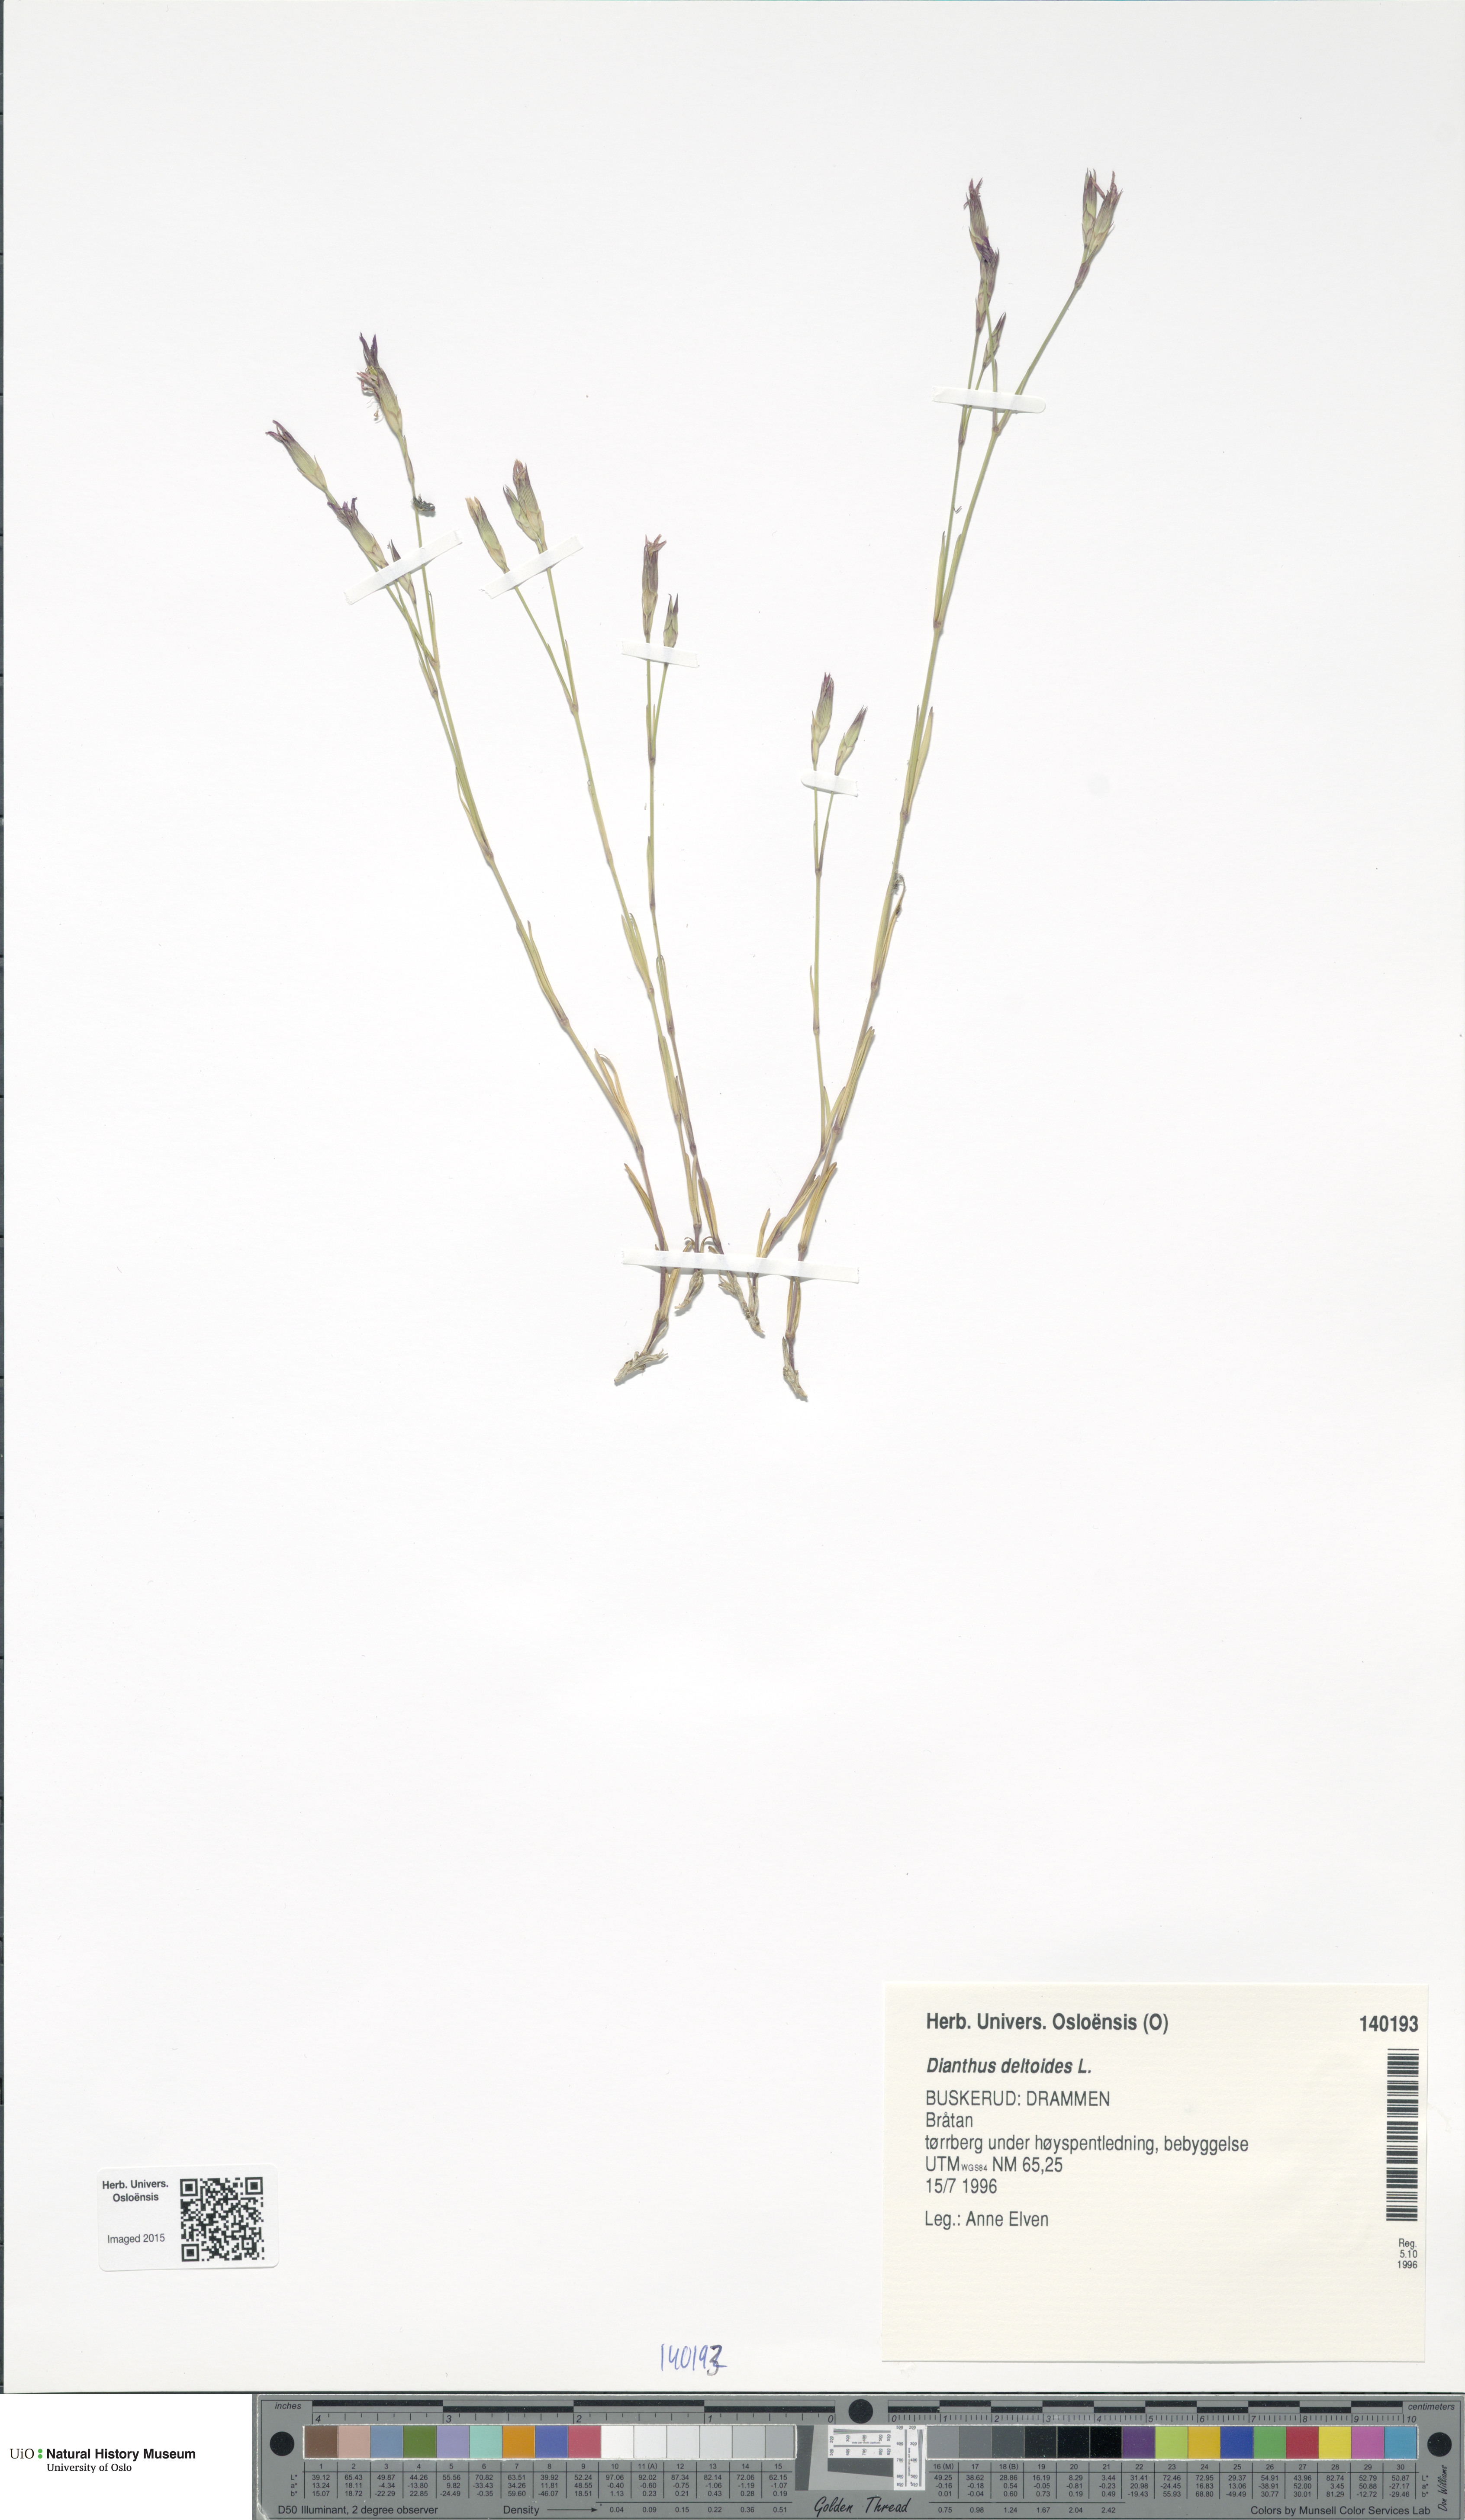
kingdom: Plantae
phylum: Tracheophyta
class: Magnoliopsida
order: Caryophyllales
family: Caryophyllaceae
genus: Dianthus
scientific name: Dianthus deltoides
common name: Maiden pink
